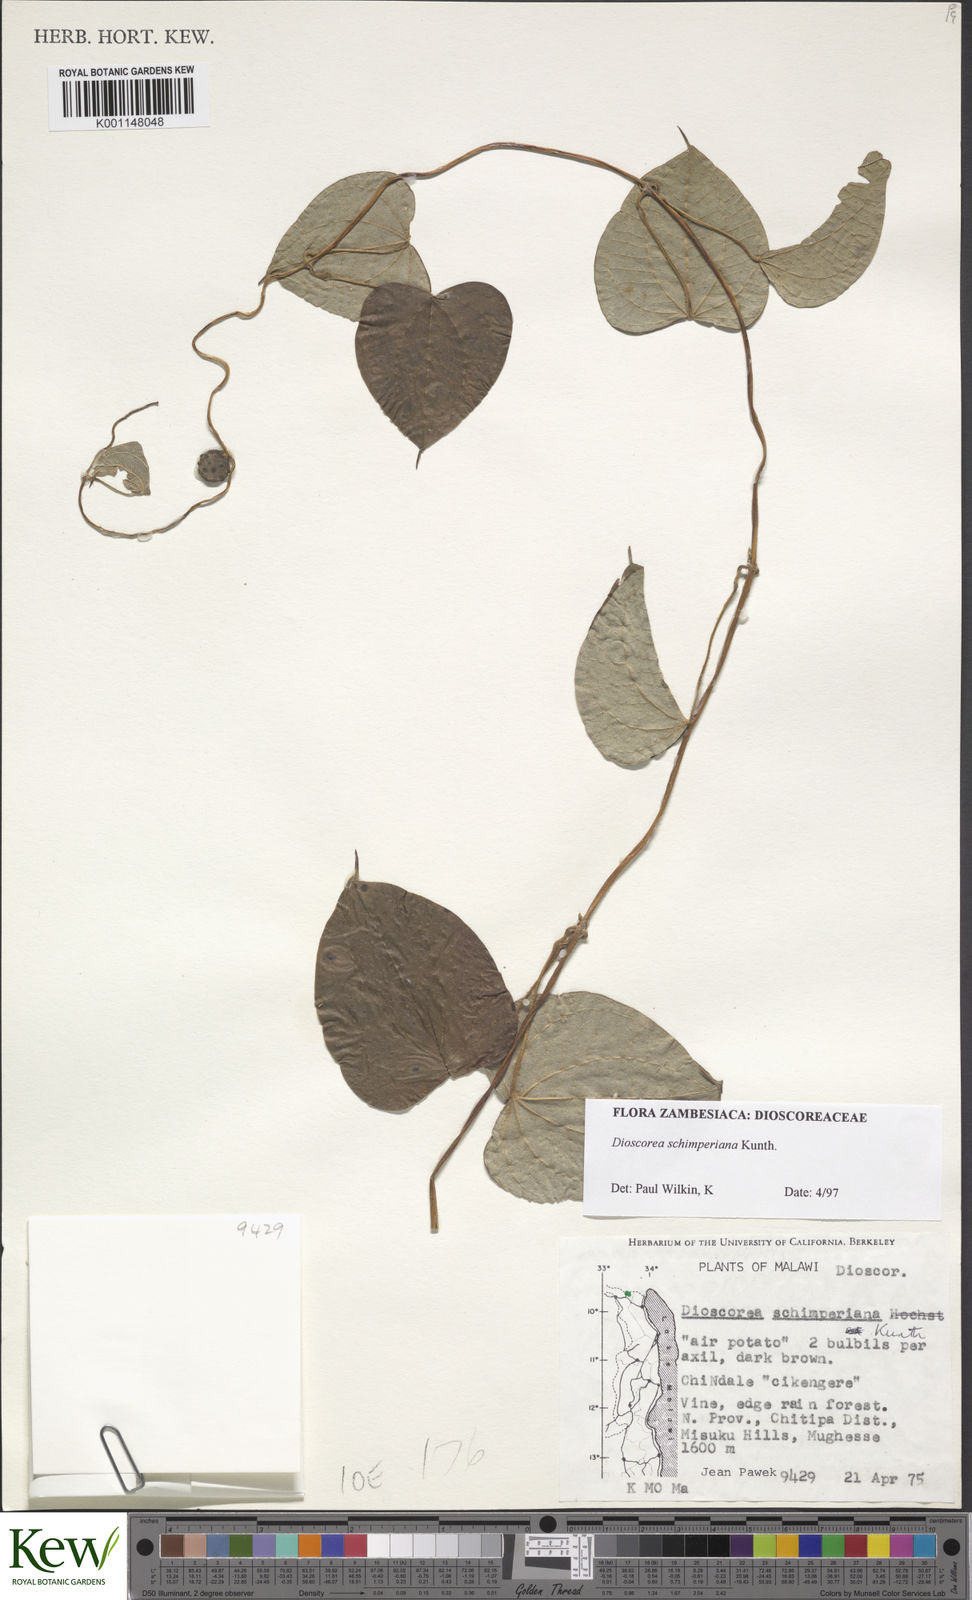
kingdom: Plantae
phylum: Tracheophyta
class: Liliopsida
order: Dioscoreales
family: Dioscoreaceae
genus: Dioscorea
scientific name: Dioscorea schimperiana
